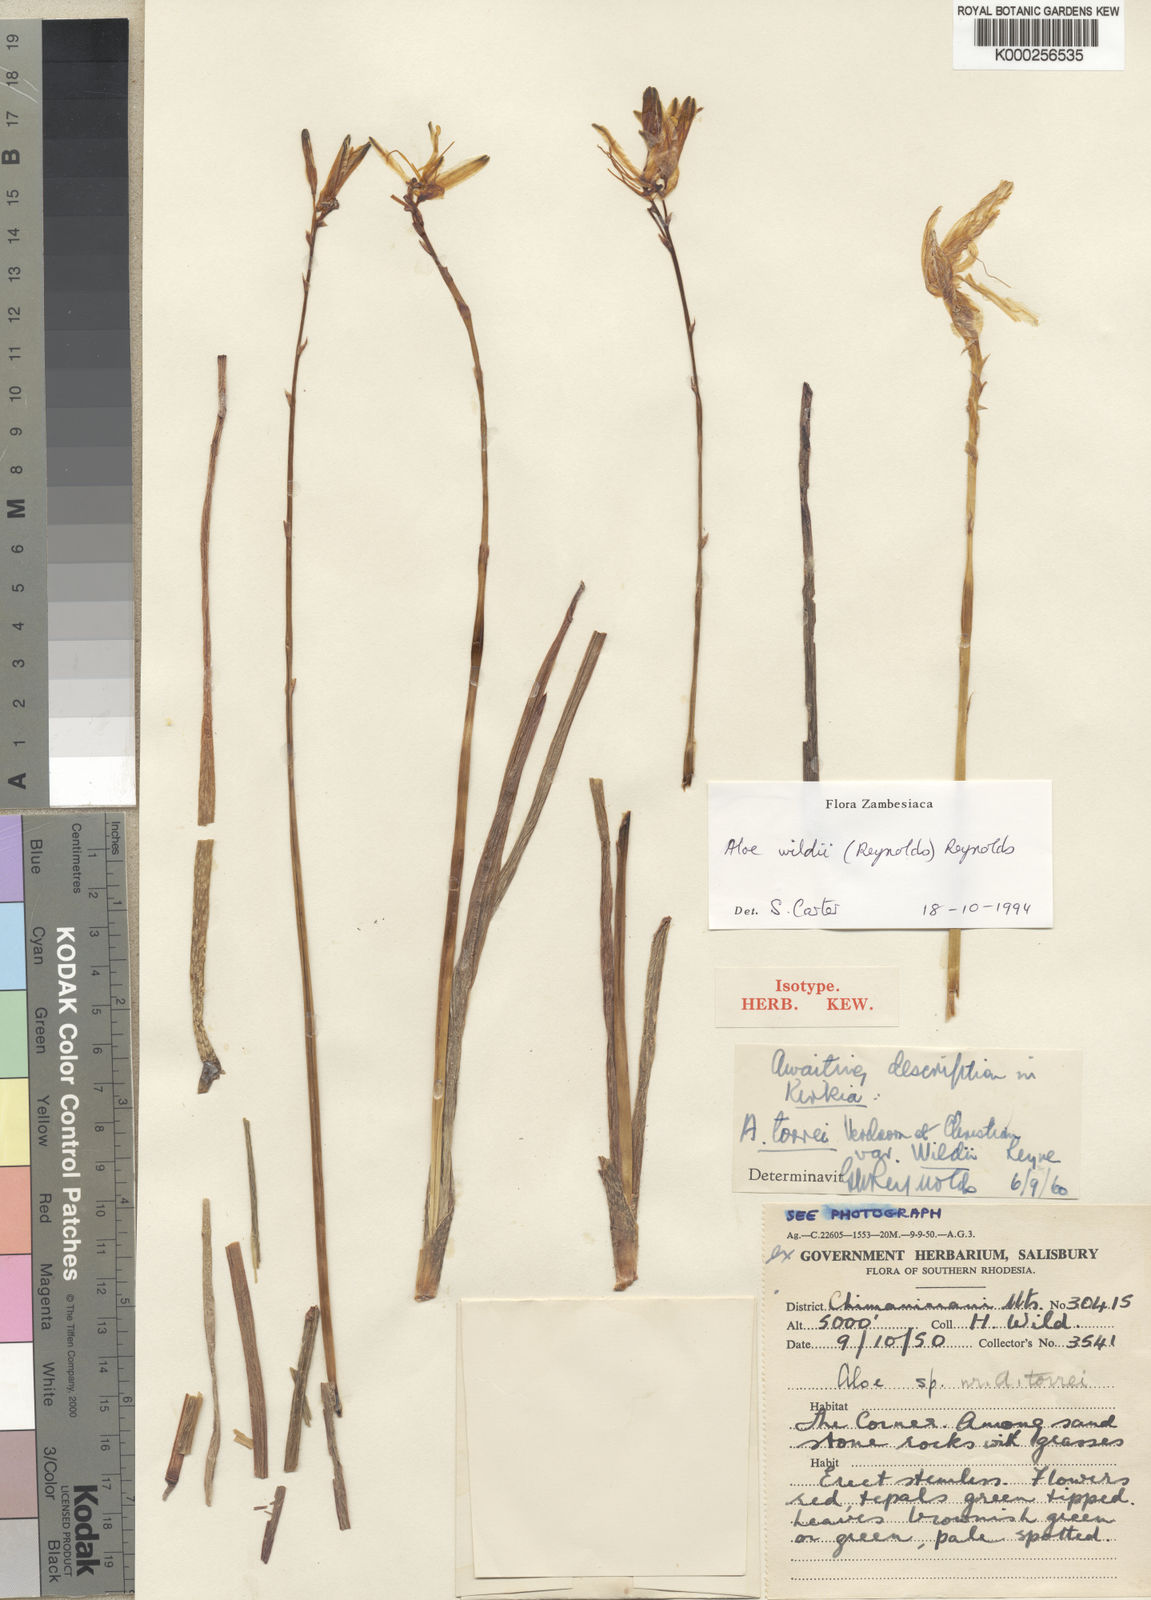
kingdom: Plantae
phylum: Tracheophyta
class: Liliopsida
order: Asparagales
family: Asphodelaceae
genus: Aloe
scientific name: Aloe wildii
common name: Wild's small chimanimani aloe
